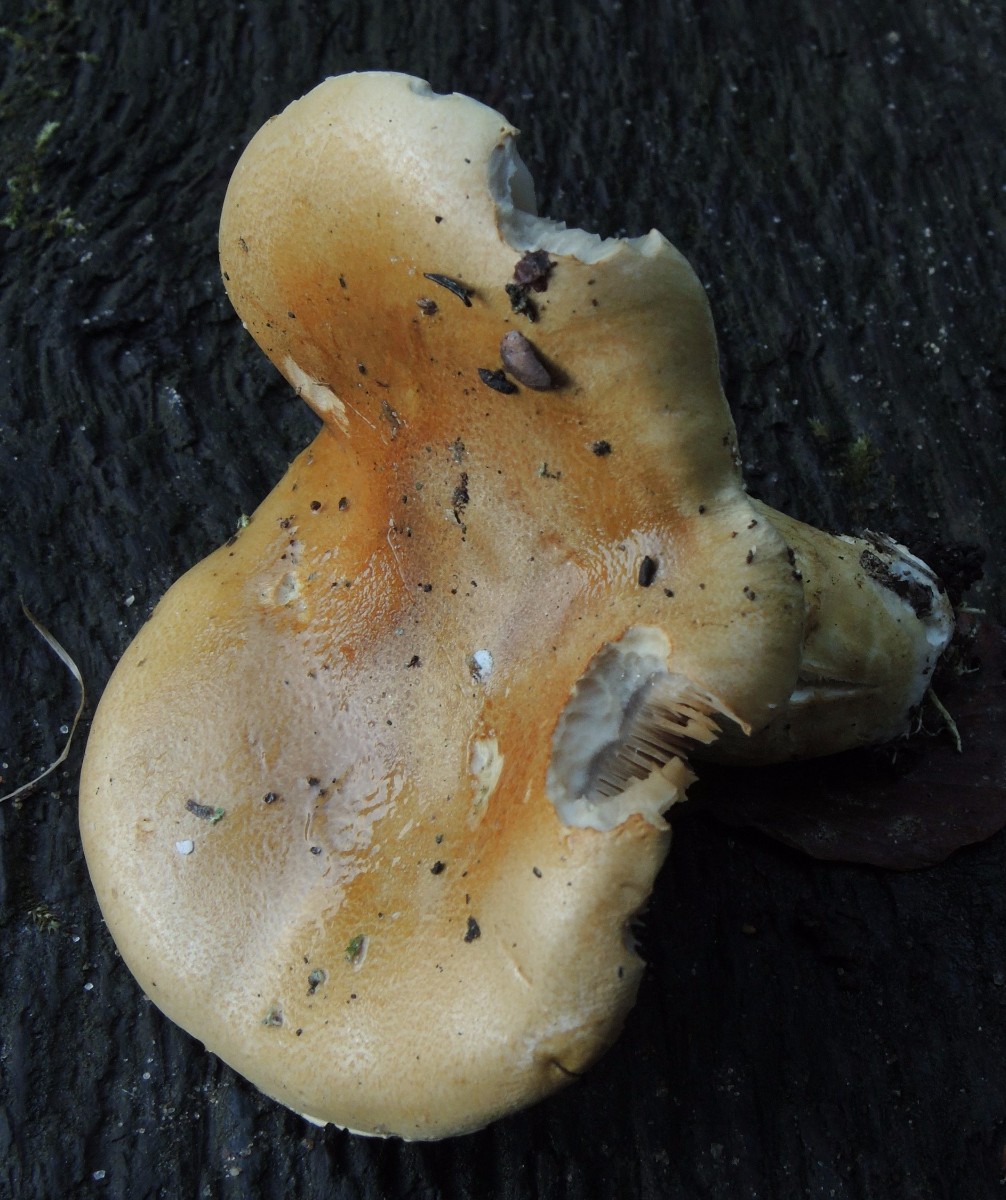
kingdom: Fungi
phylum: Basidiomycota
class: Agaricomycetes
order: Agaricales
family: Cortinariaceae
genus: Phlegmacium
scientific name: Phlegmacium cliduchus
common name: majs-slørhat
